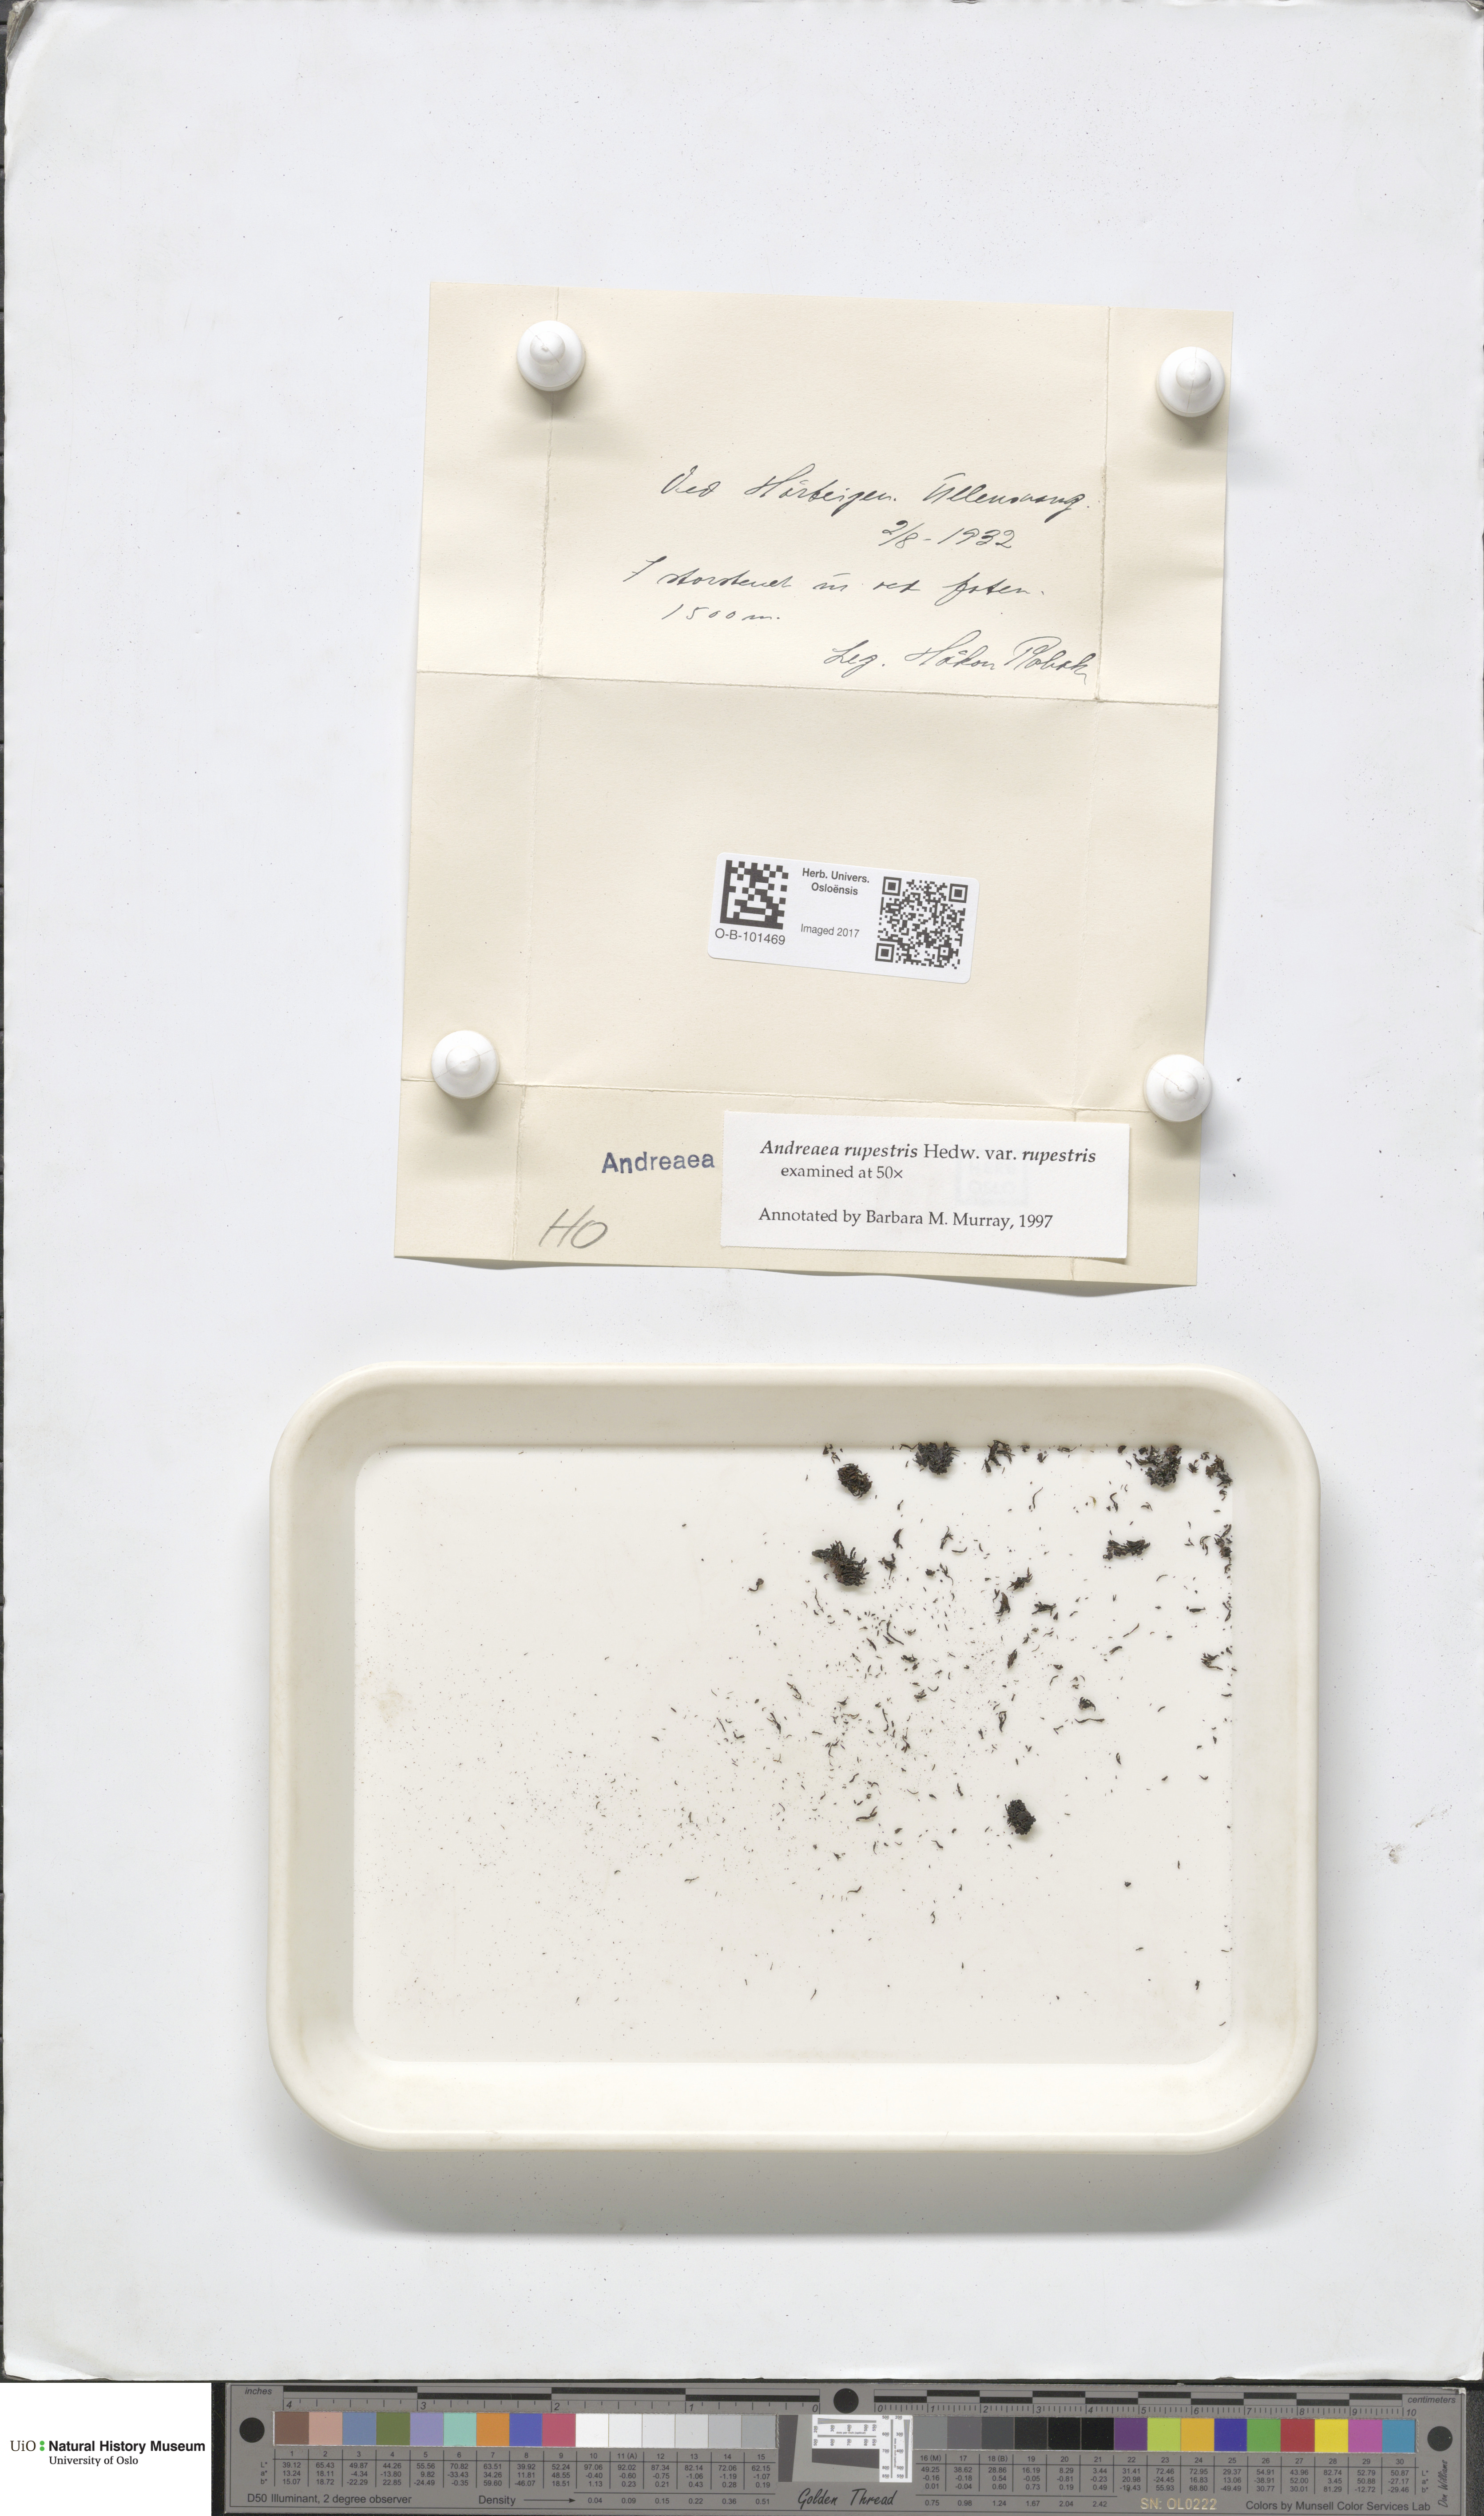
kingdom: Plantae
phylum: Bryophyta
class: Andreaeopsida
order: Andreaeales
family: Andreaeaceae
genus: Andreaea
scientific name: Andreaea rupestris
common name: Black rock moss
